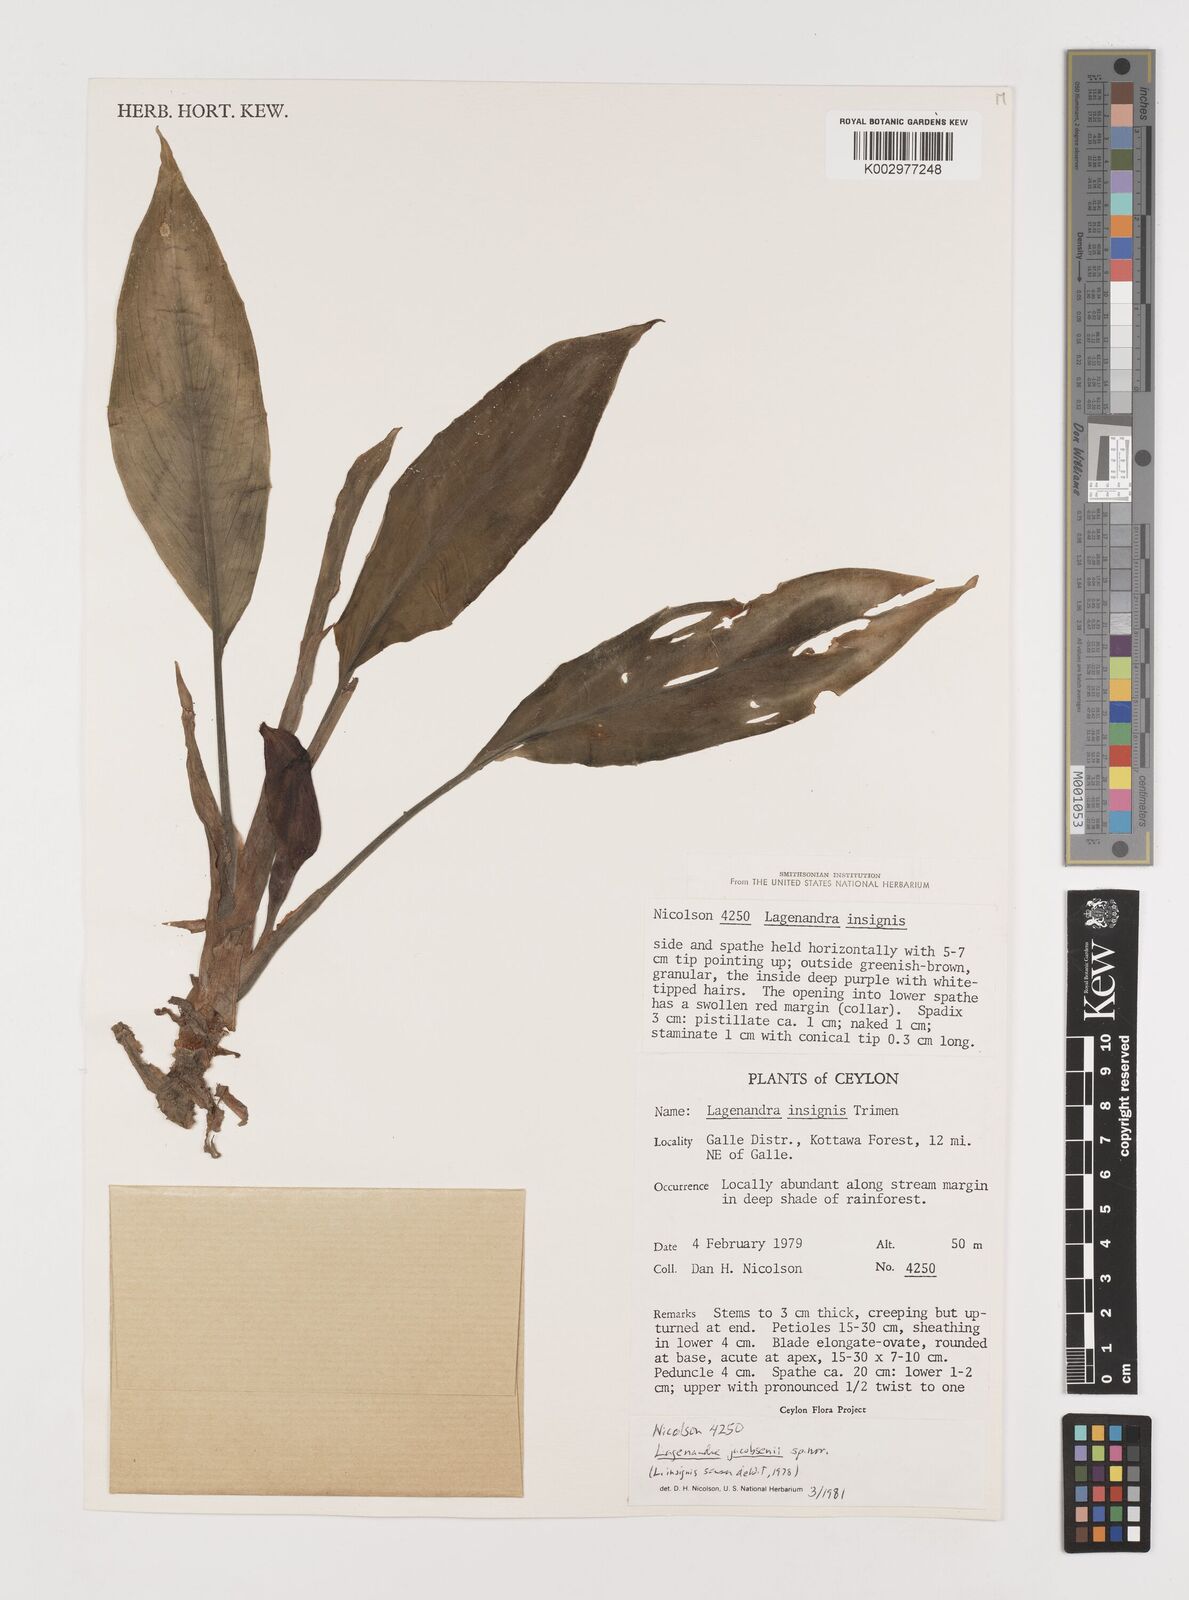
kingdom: Plantae
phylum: Tracheophyta
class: Liliopsida
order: Alismatales
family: Araceae
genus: Lagenandra
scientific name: Lagenandra jacobsenii
